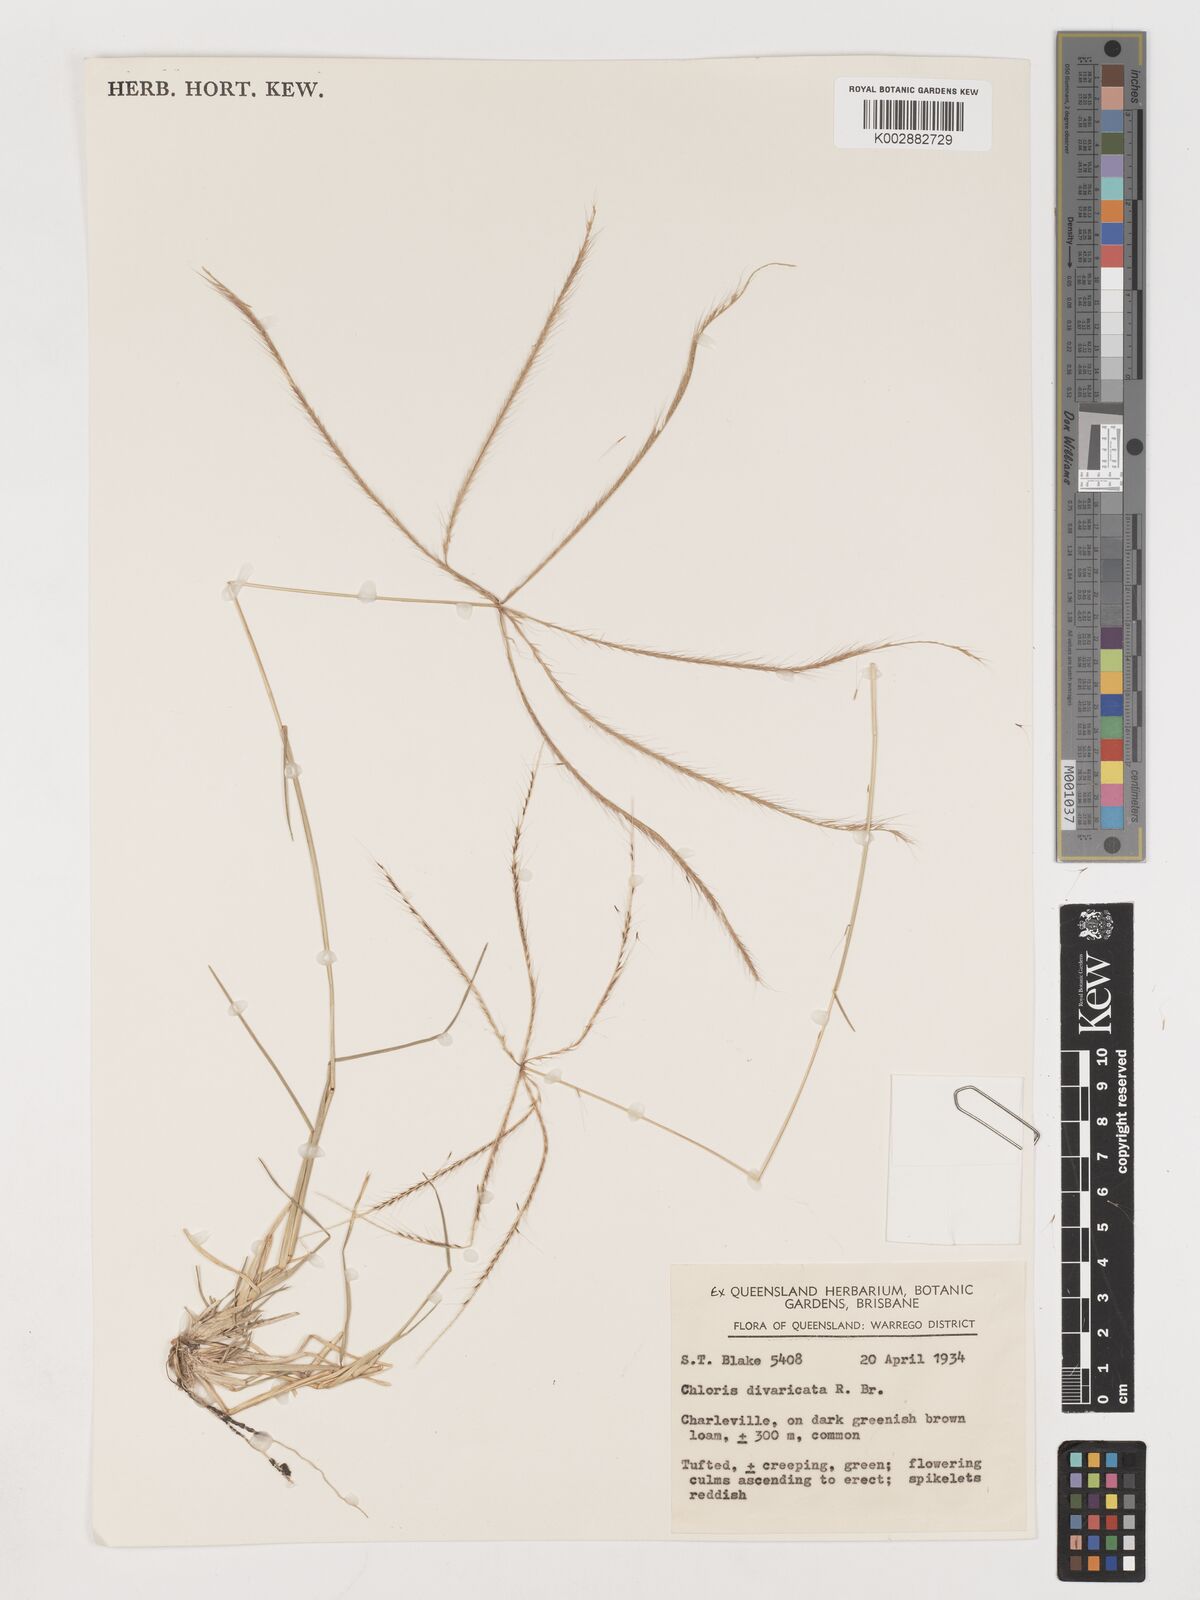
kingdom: Plantae
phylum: Tracheophyta
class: Liliopsida
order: Poales
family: Poaceae
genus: Chloris
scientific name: Chloris divaricata
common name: Spreading windmill grass
